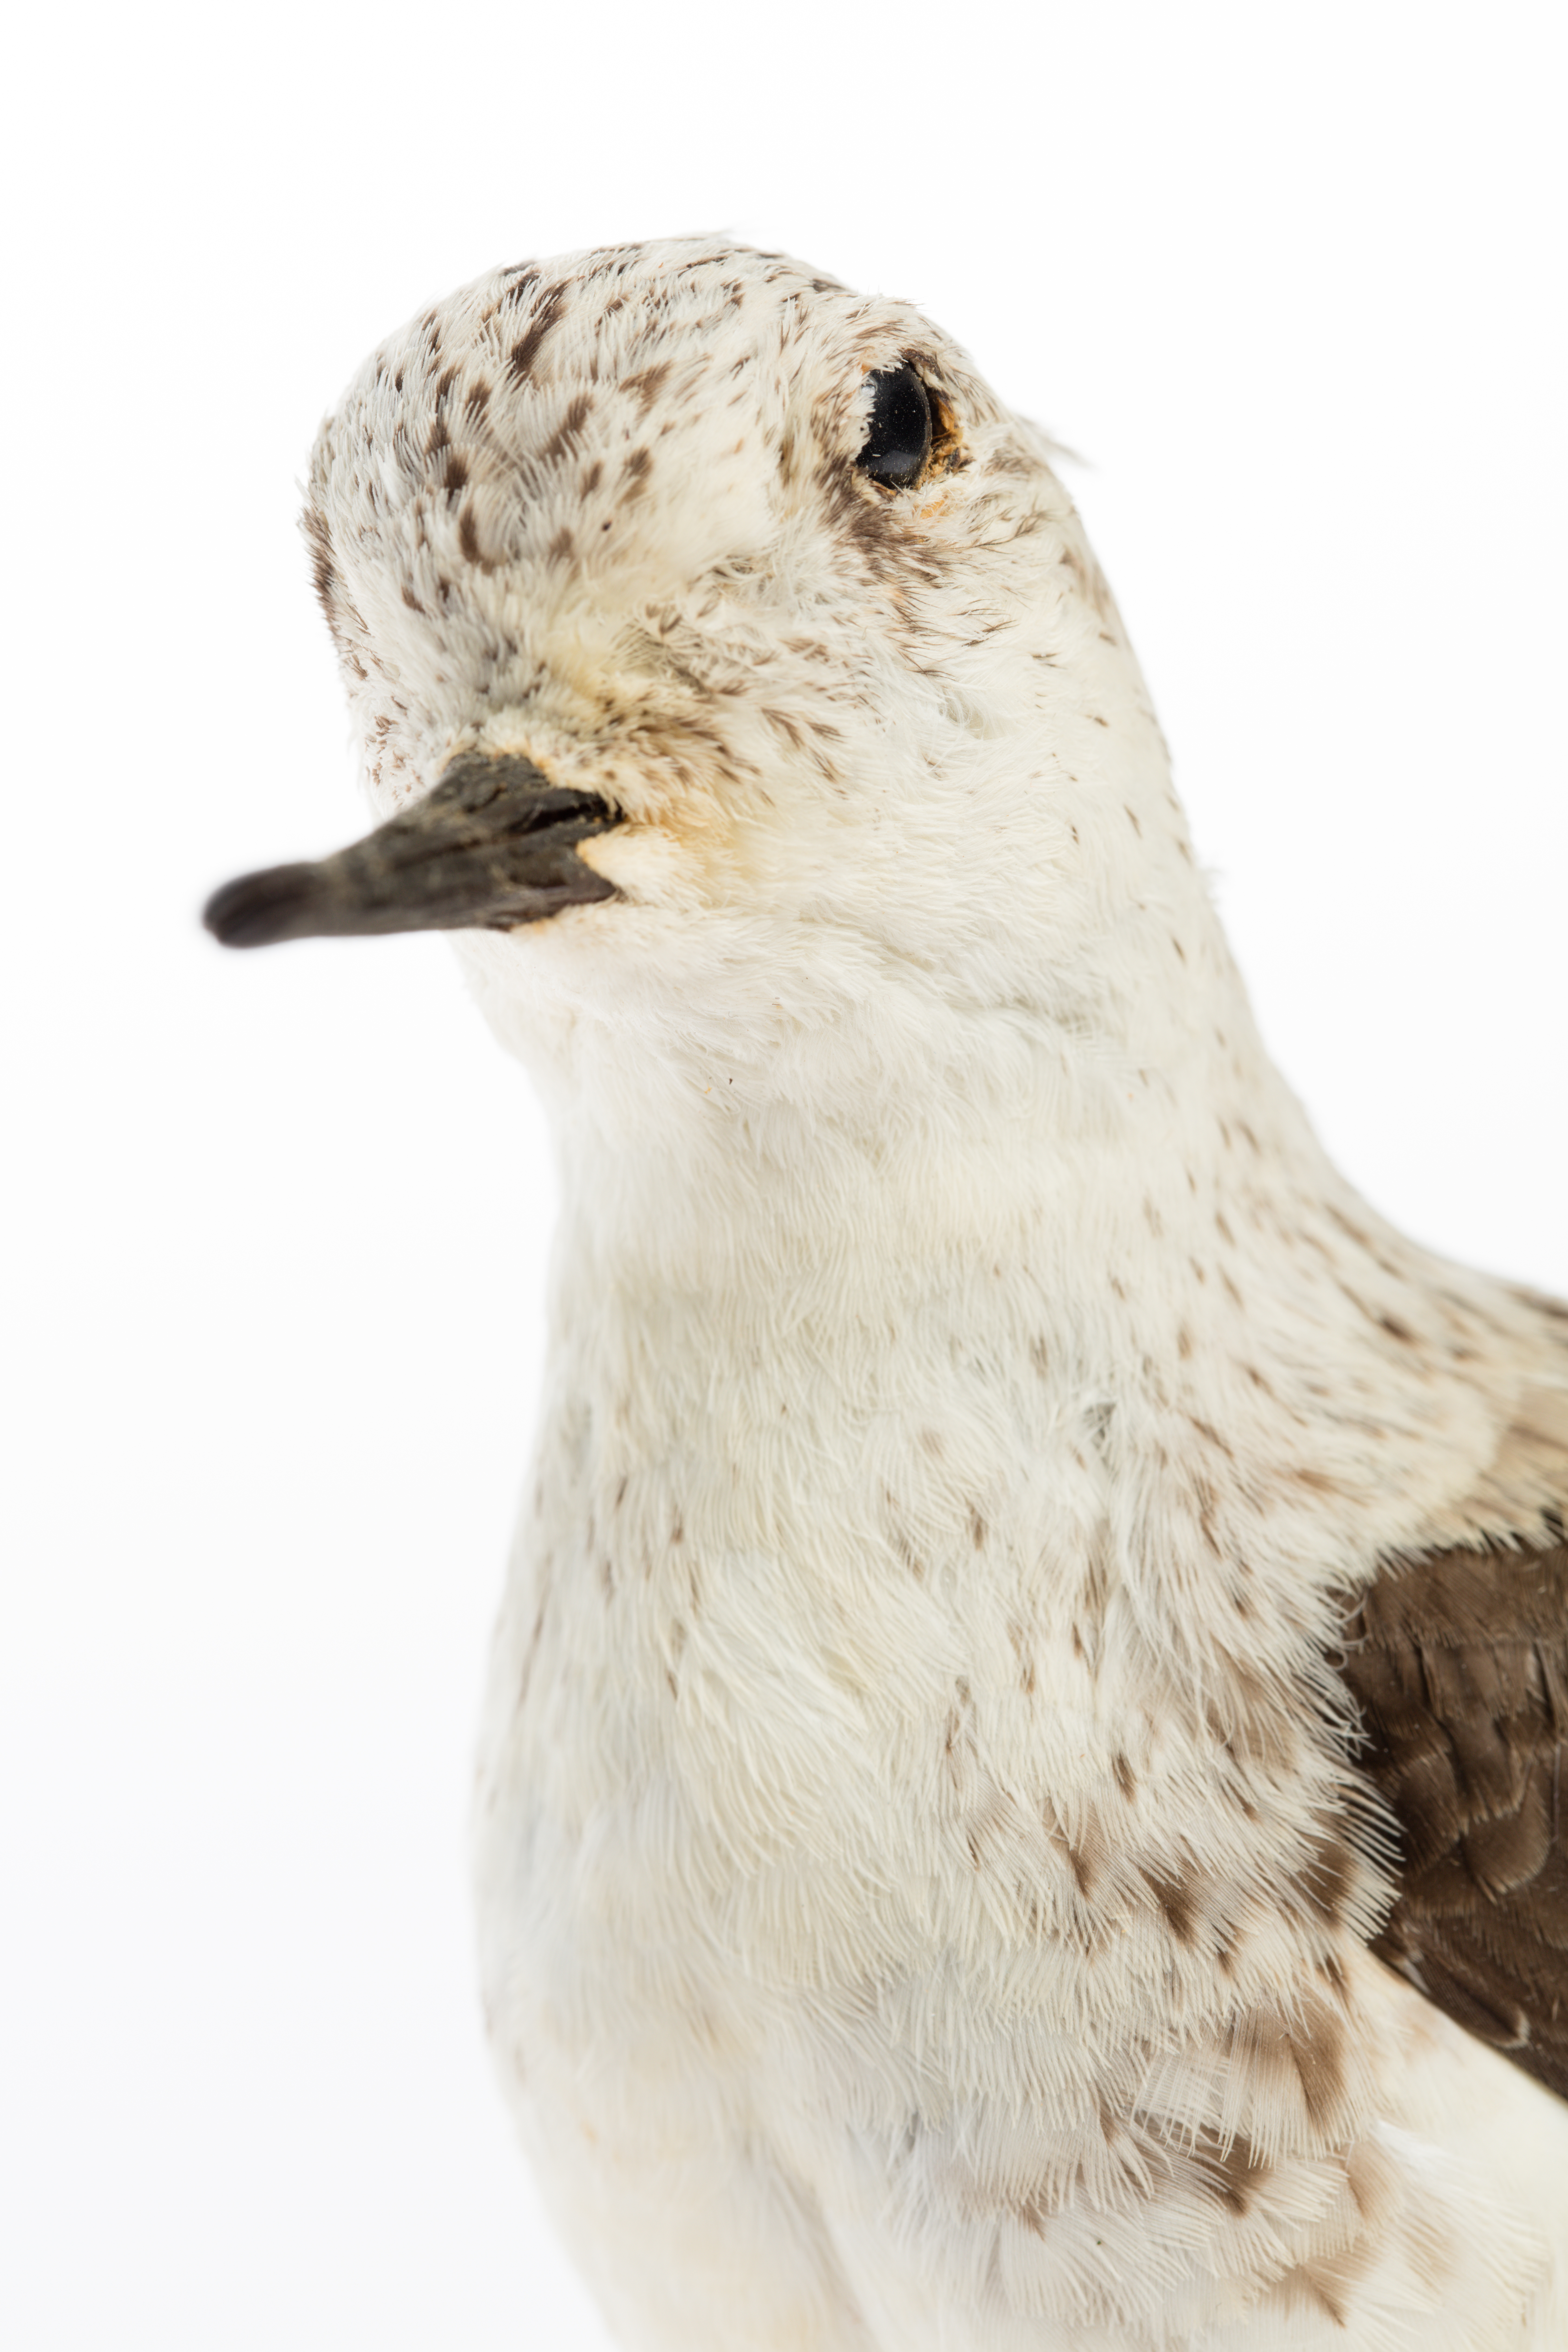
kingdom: Animalia
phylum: Chordata
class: Aves
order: Charadriiformes
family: Scolopacidae
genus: Calidris
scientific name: Calidris alba
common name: Sanderling
